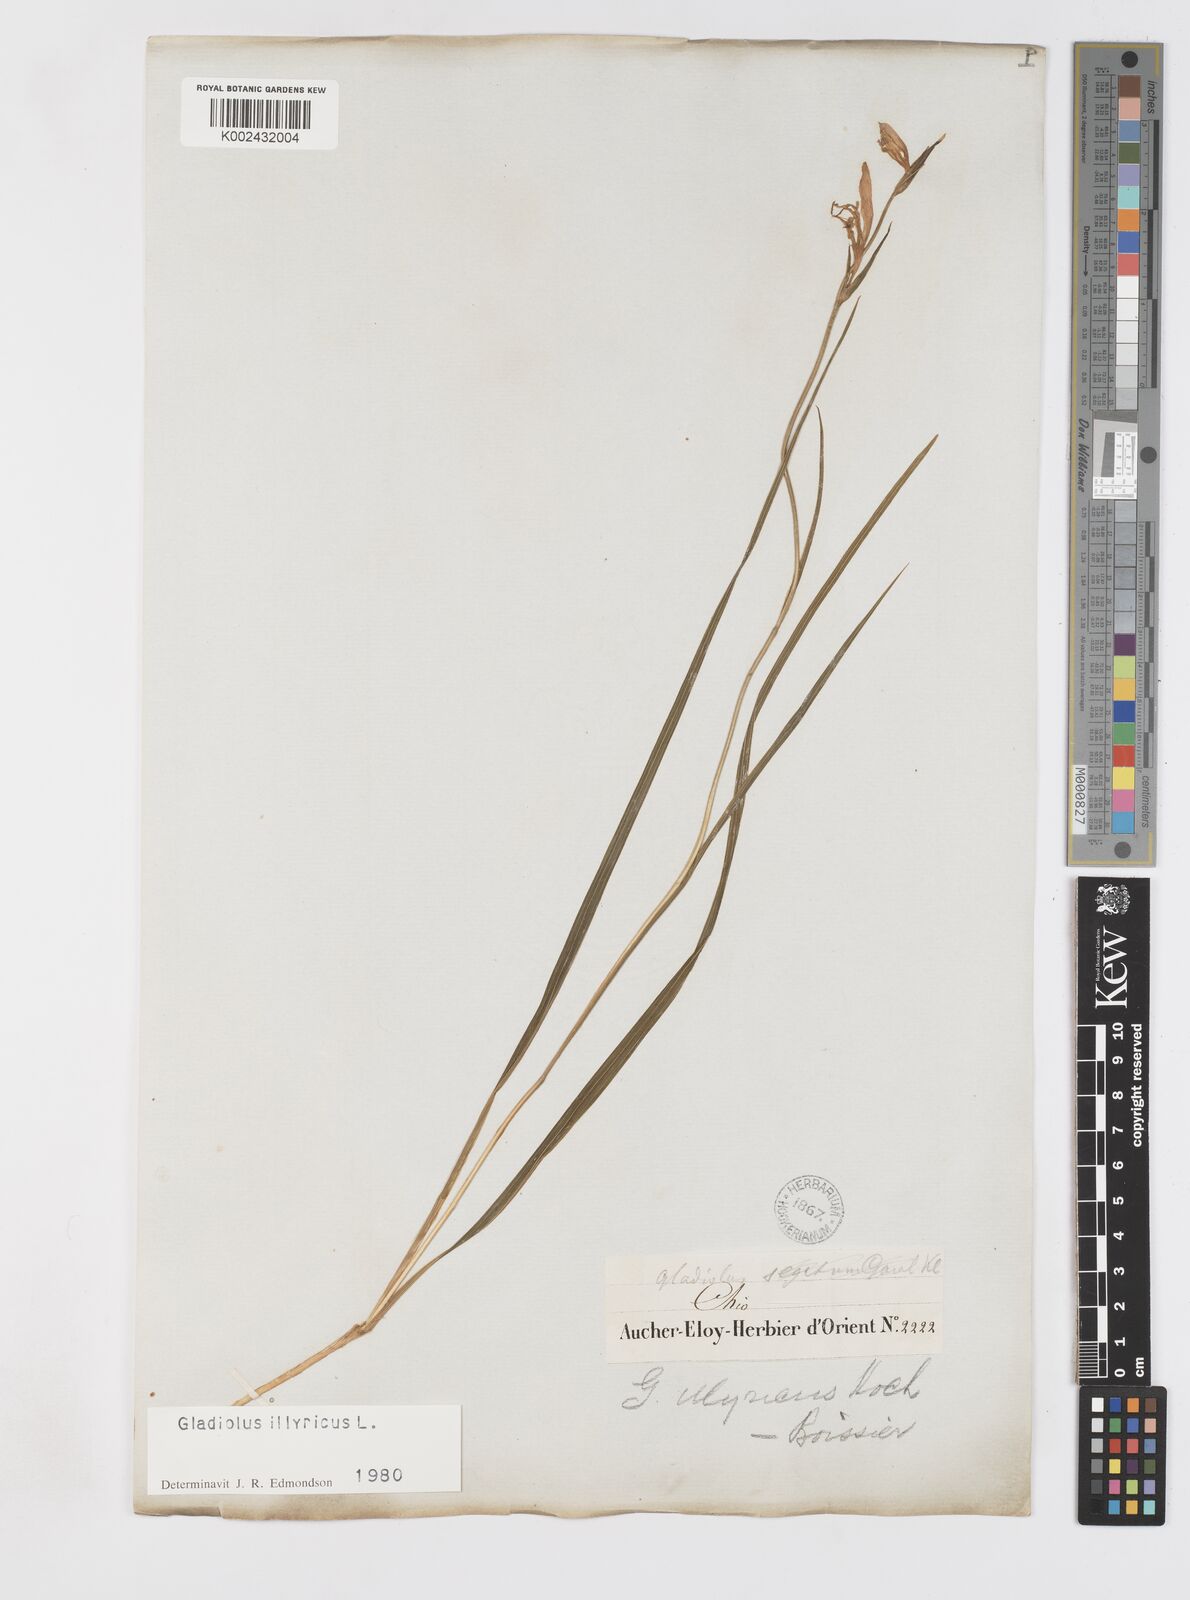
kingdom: Plantae
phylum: Tracheophyta
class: Liliopsida
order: Asparagales
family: Iridaceae
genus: Gladiolus
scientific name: Gladiolus illyricus
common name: Wild gladiolus
